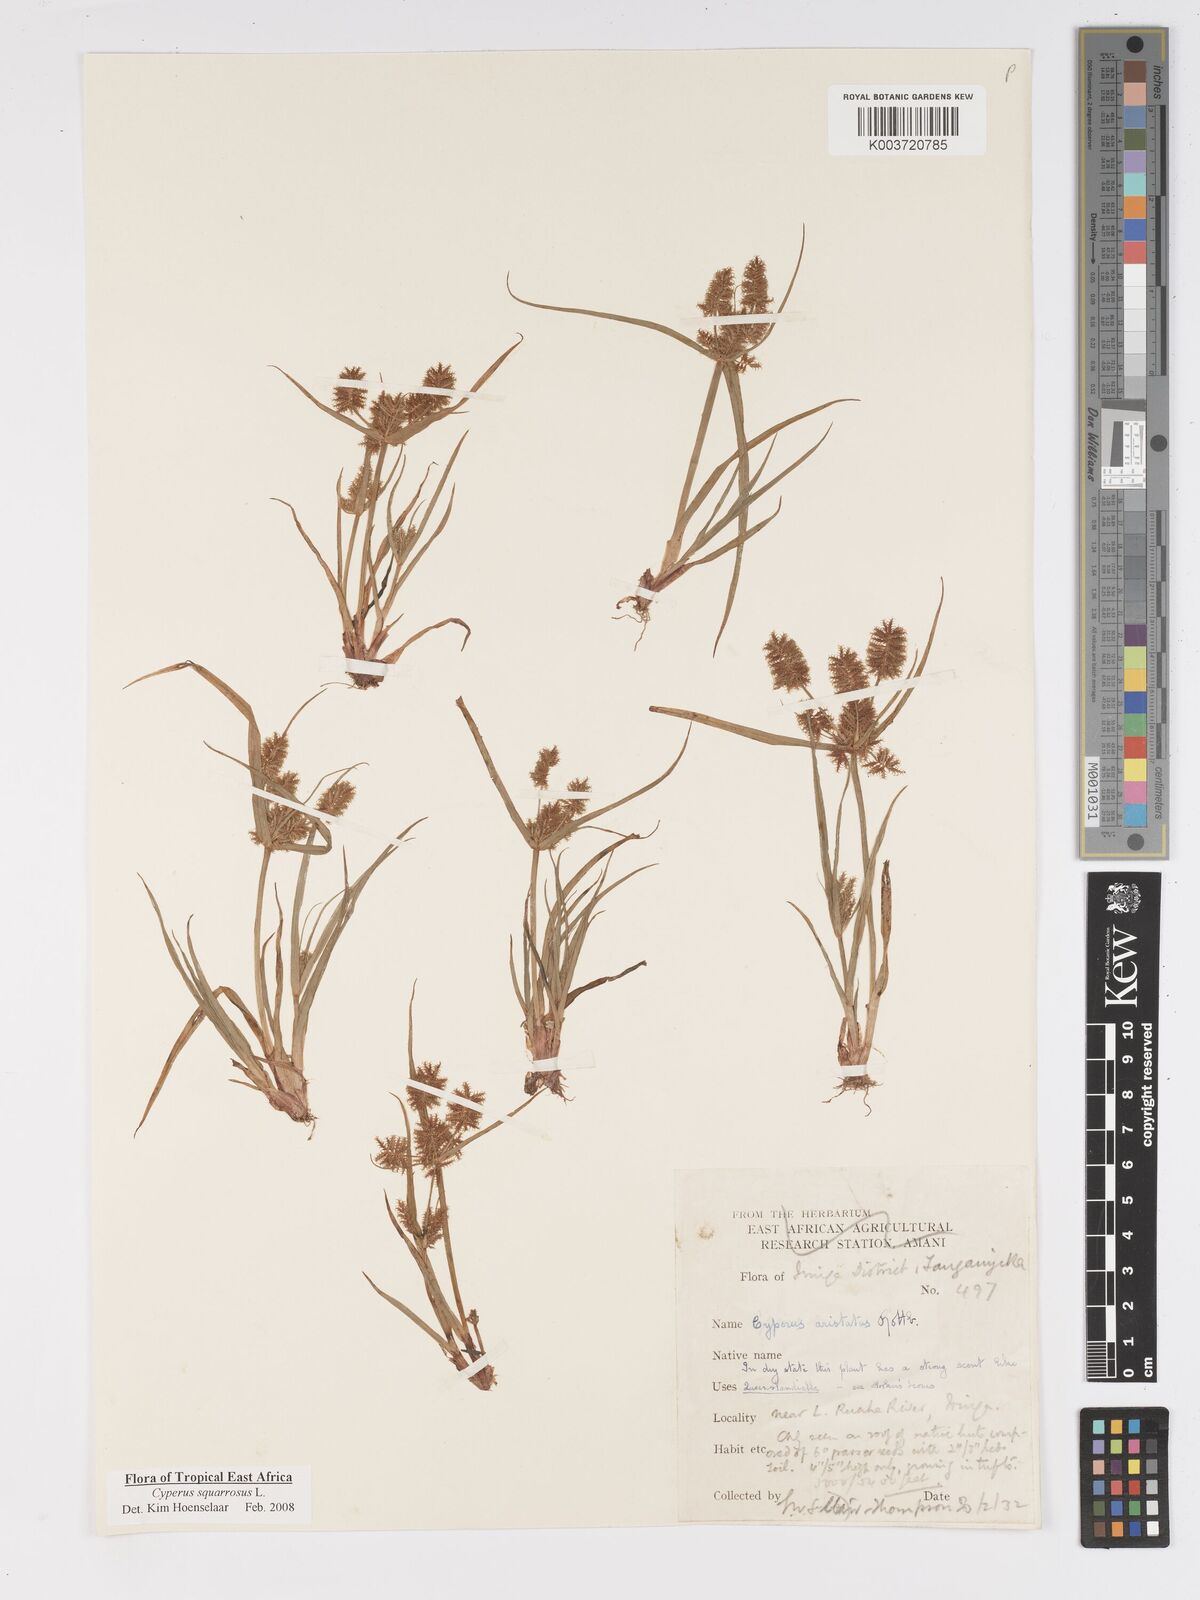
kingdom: Plantae
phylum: Tracheophyta
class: Liliopsida
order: Poales
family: Cyperaceae
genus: Cyperus
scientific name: Cyperus squarrosus
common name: Awned cyperus
